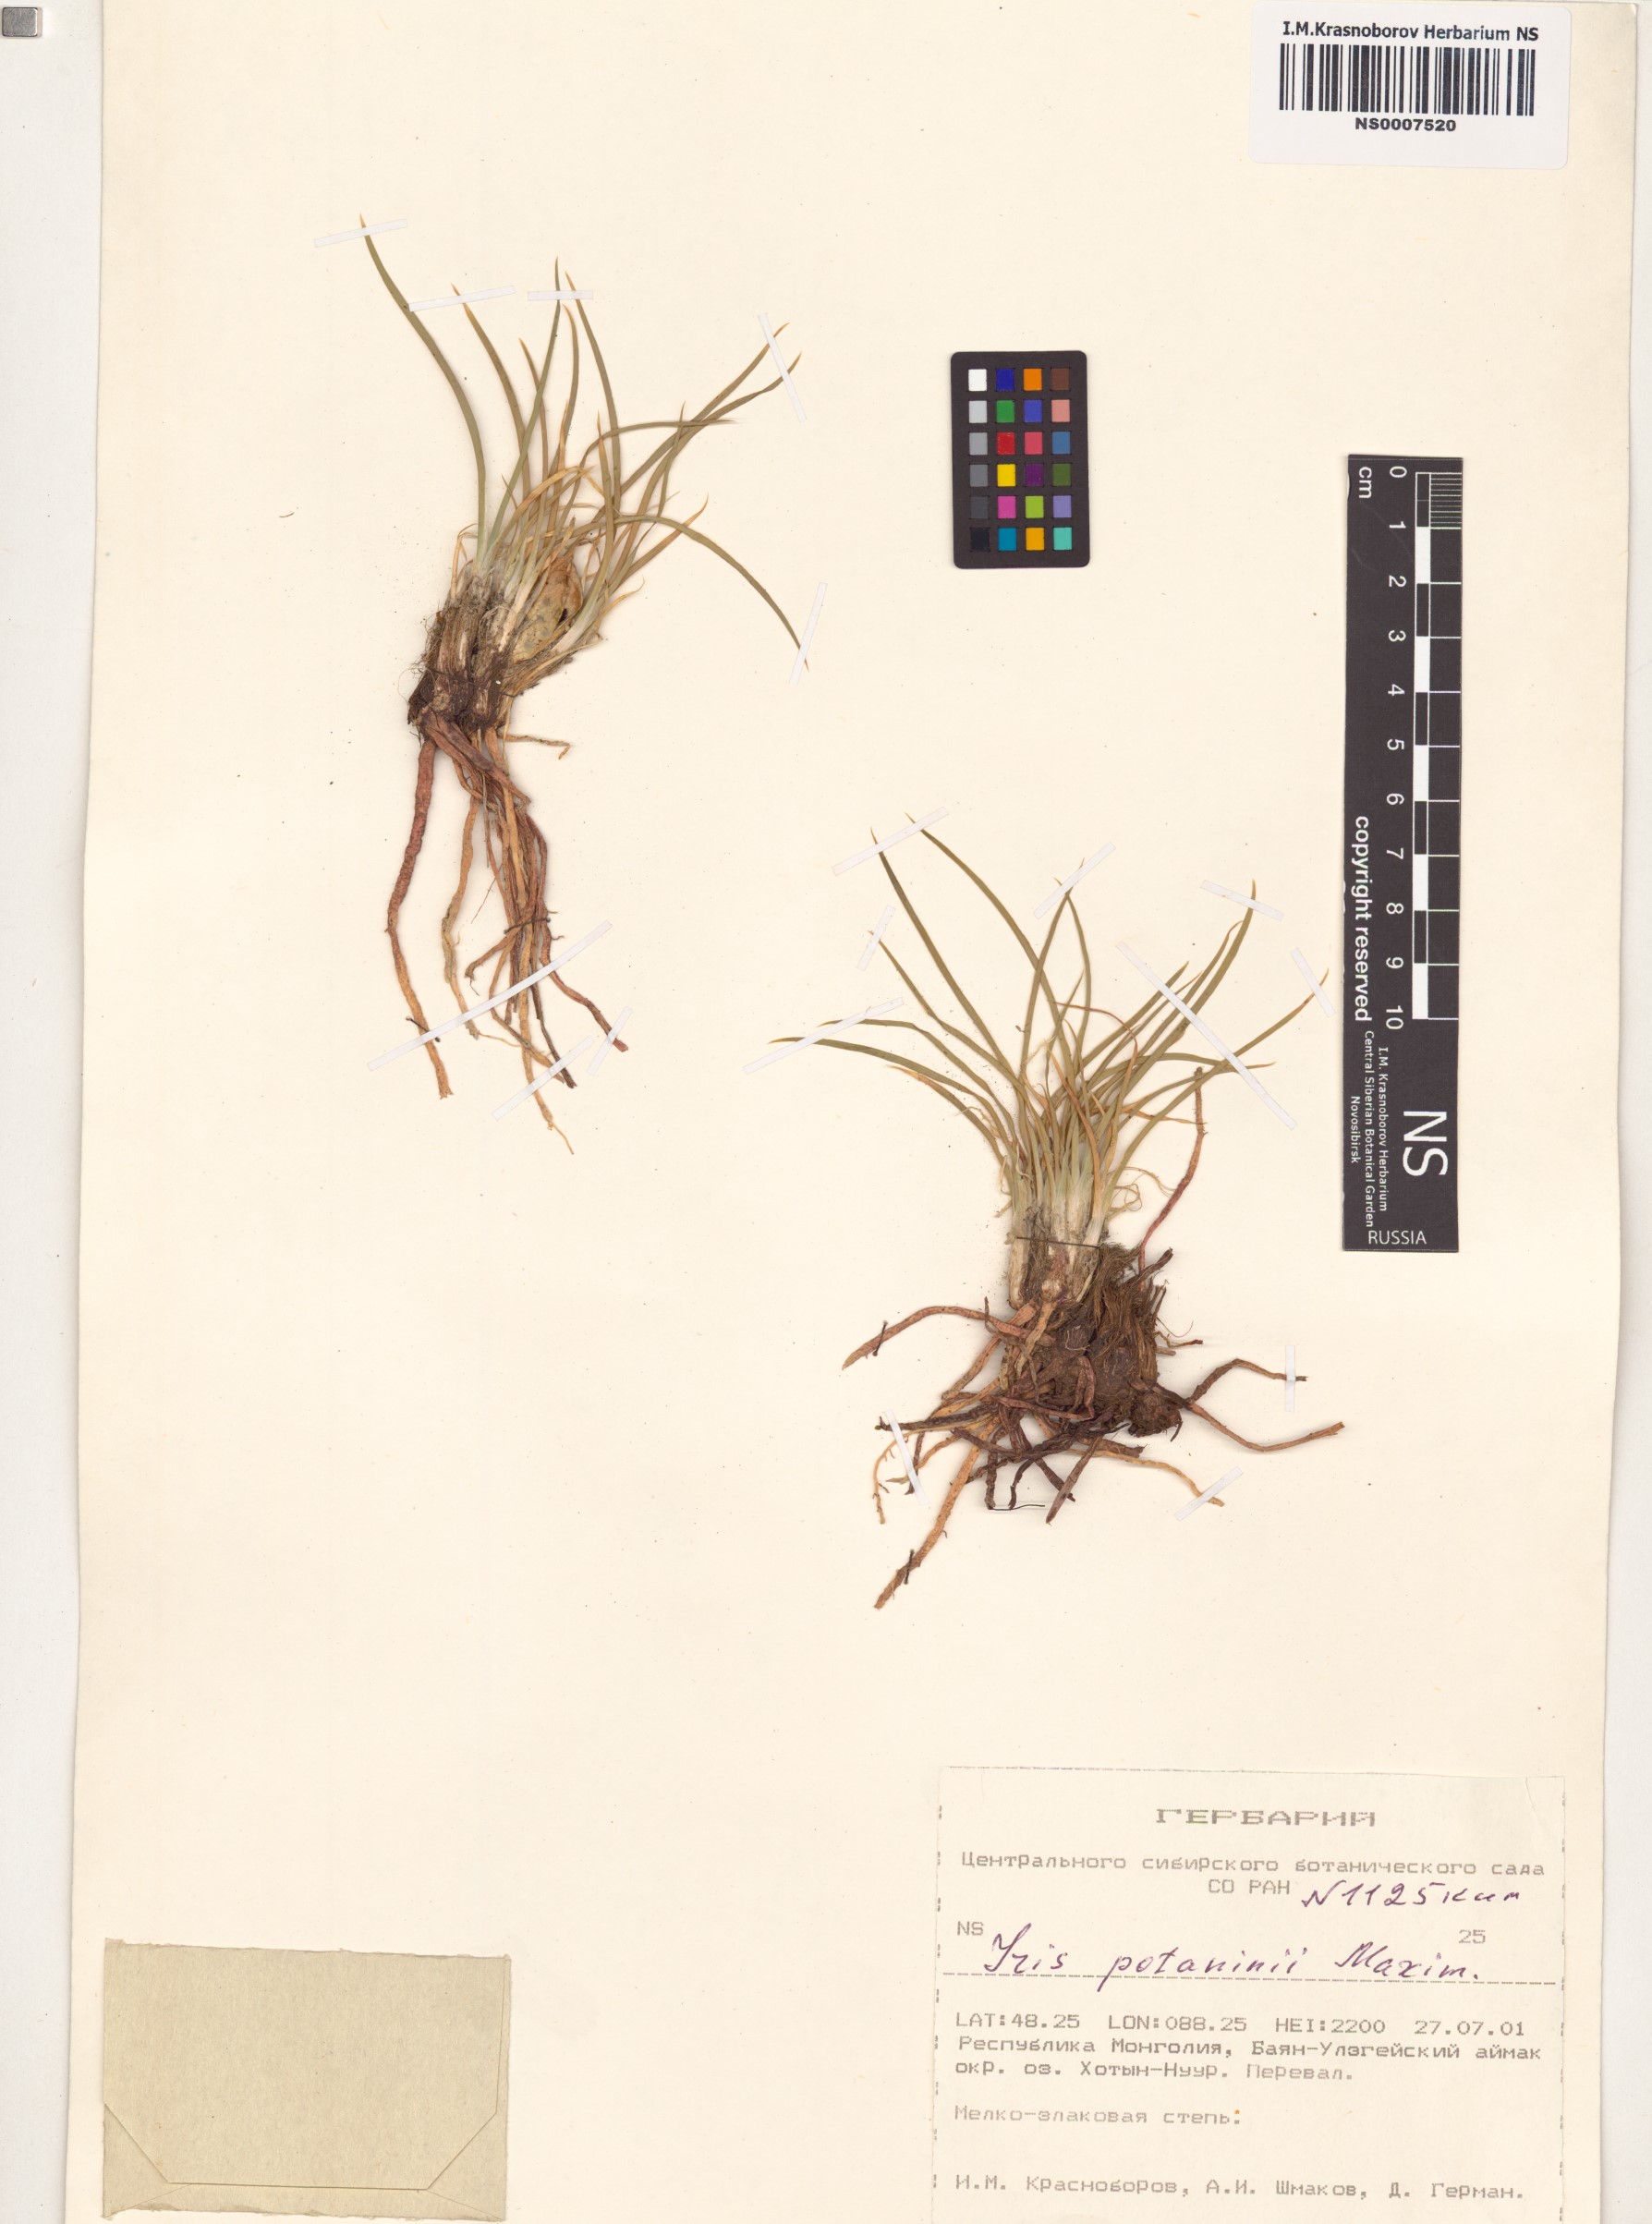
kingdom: Plantae
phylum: Tracheophyta
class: Liliopsida
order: Asparagales
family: Iridaceae
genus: Iris
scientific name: Iris potaninii
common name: Curl-sheath iris
